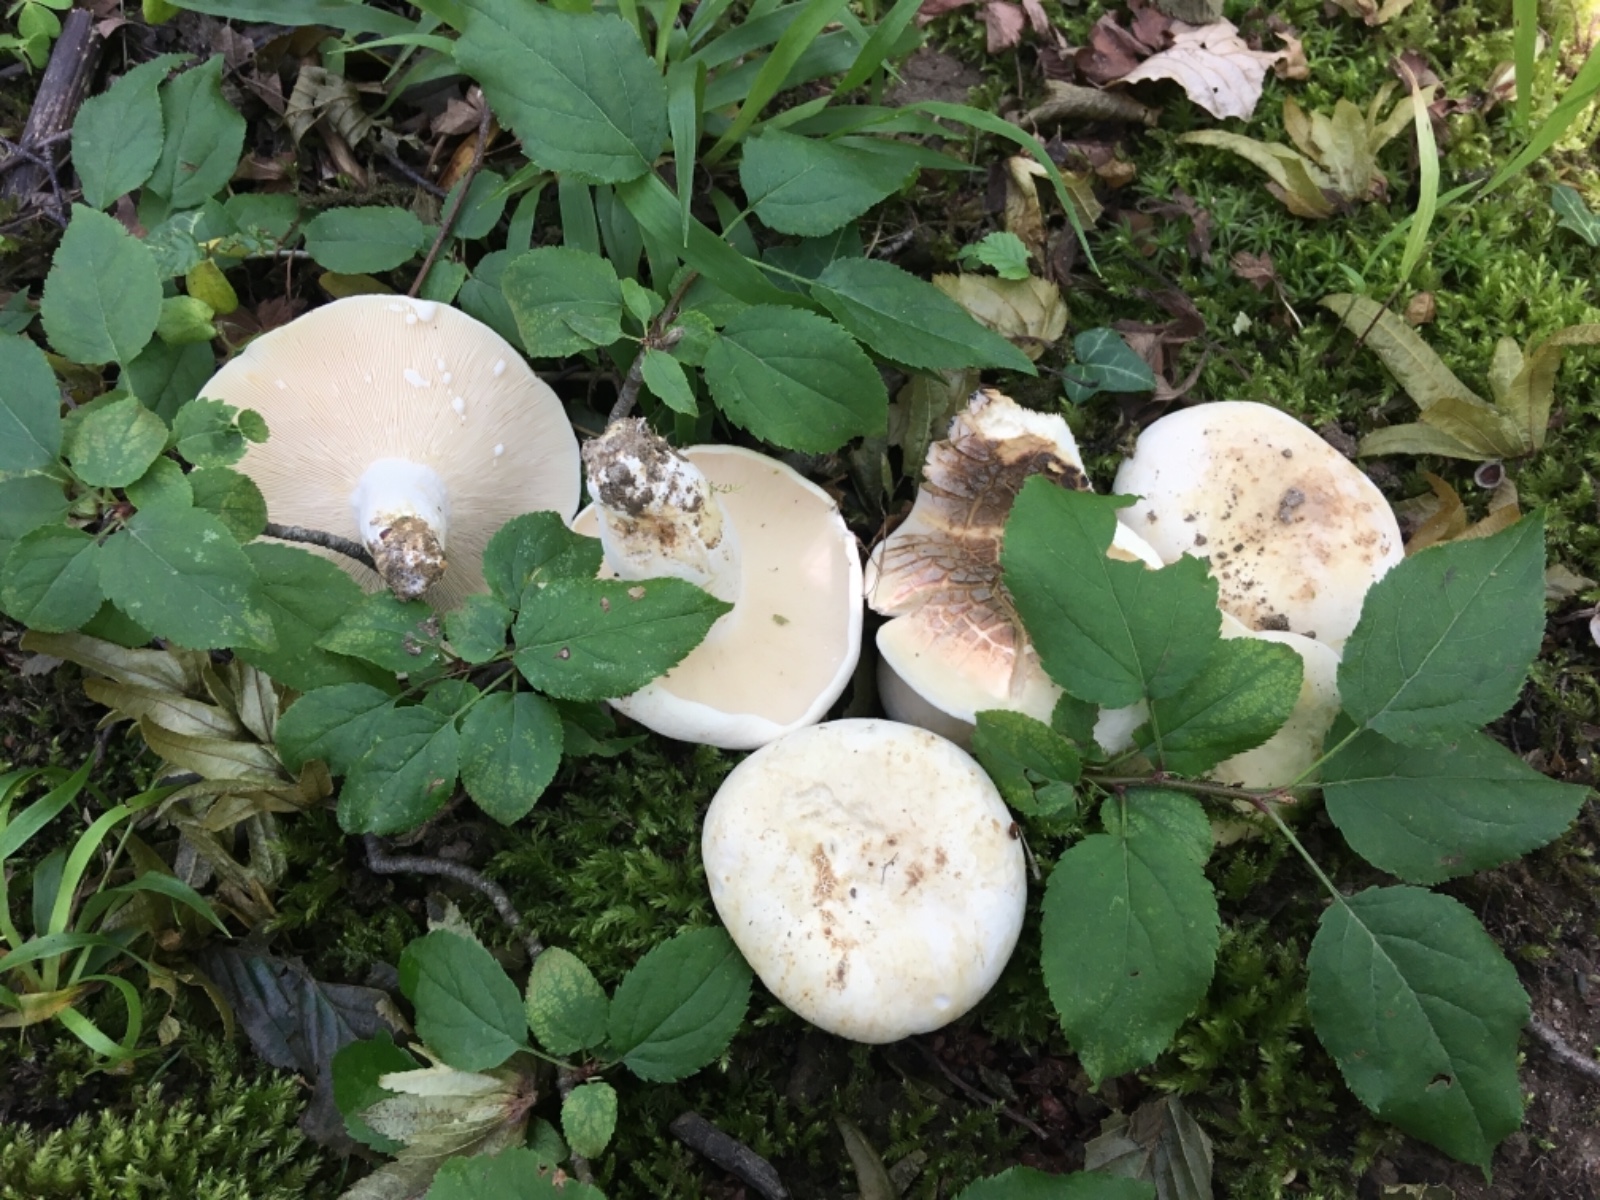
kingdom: Fungi
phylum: Basidiomycota
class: Agaricomycetes
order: Russulales
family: Russulaceae
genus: Lactifluus
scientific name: Lactifluus piperatus
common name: peber-mælkehat
